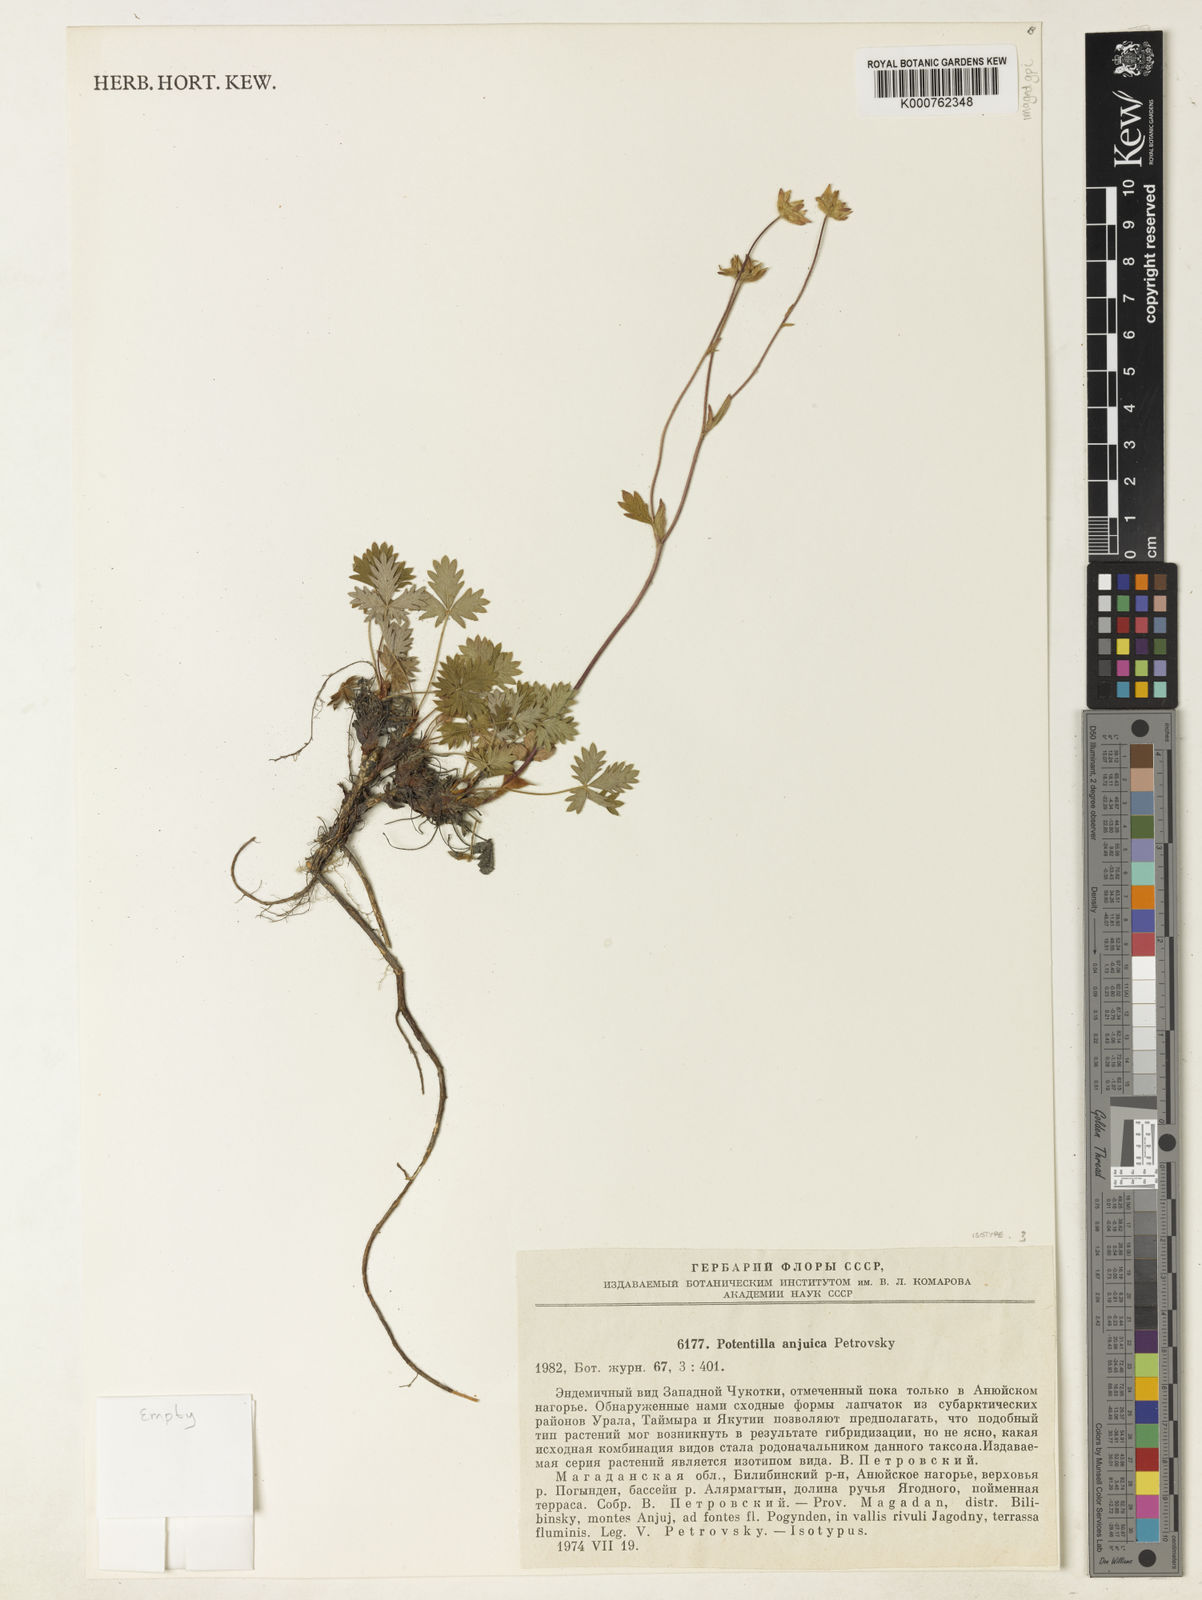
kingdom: Plantae
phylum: Tracheophyta
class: Magnoliopsida
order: Rosales
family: Rosaceae
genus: Potentilla
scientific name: Potentilla anjuica
